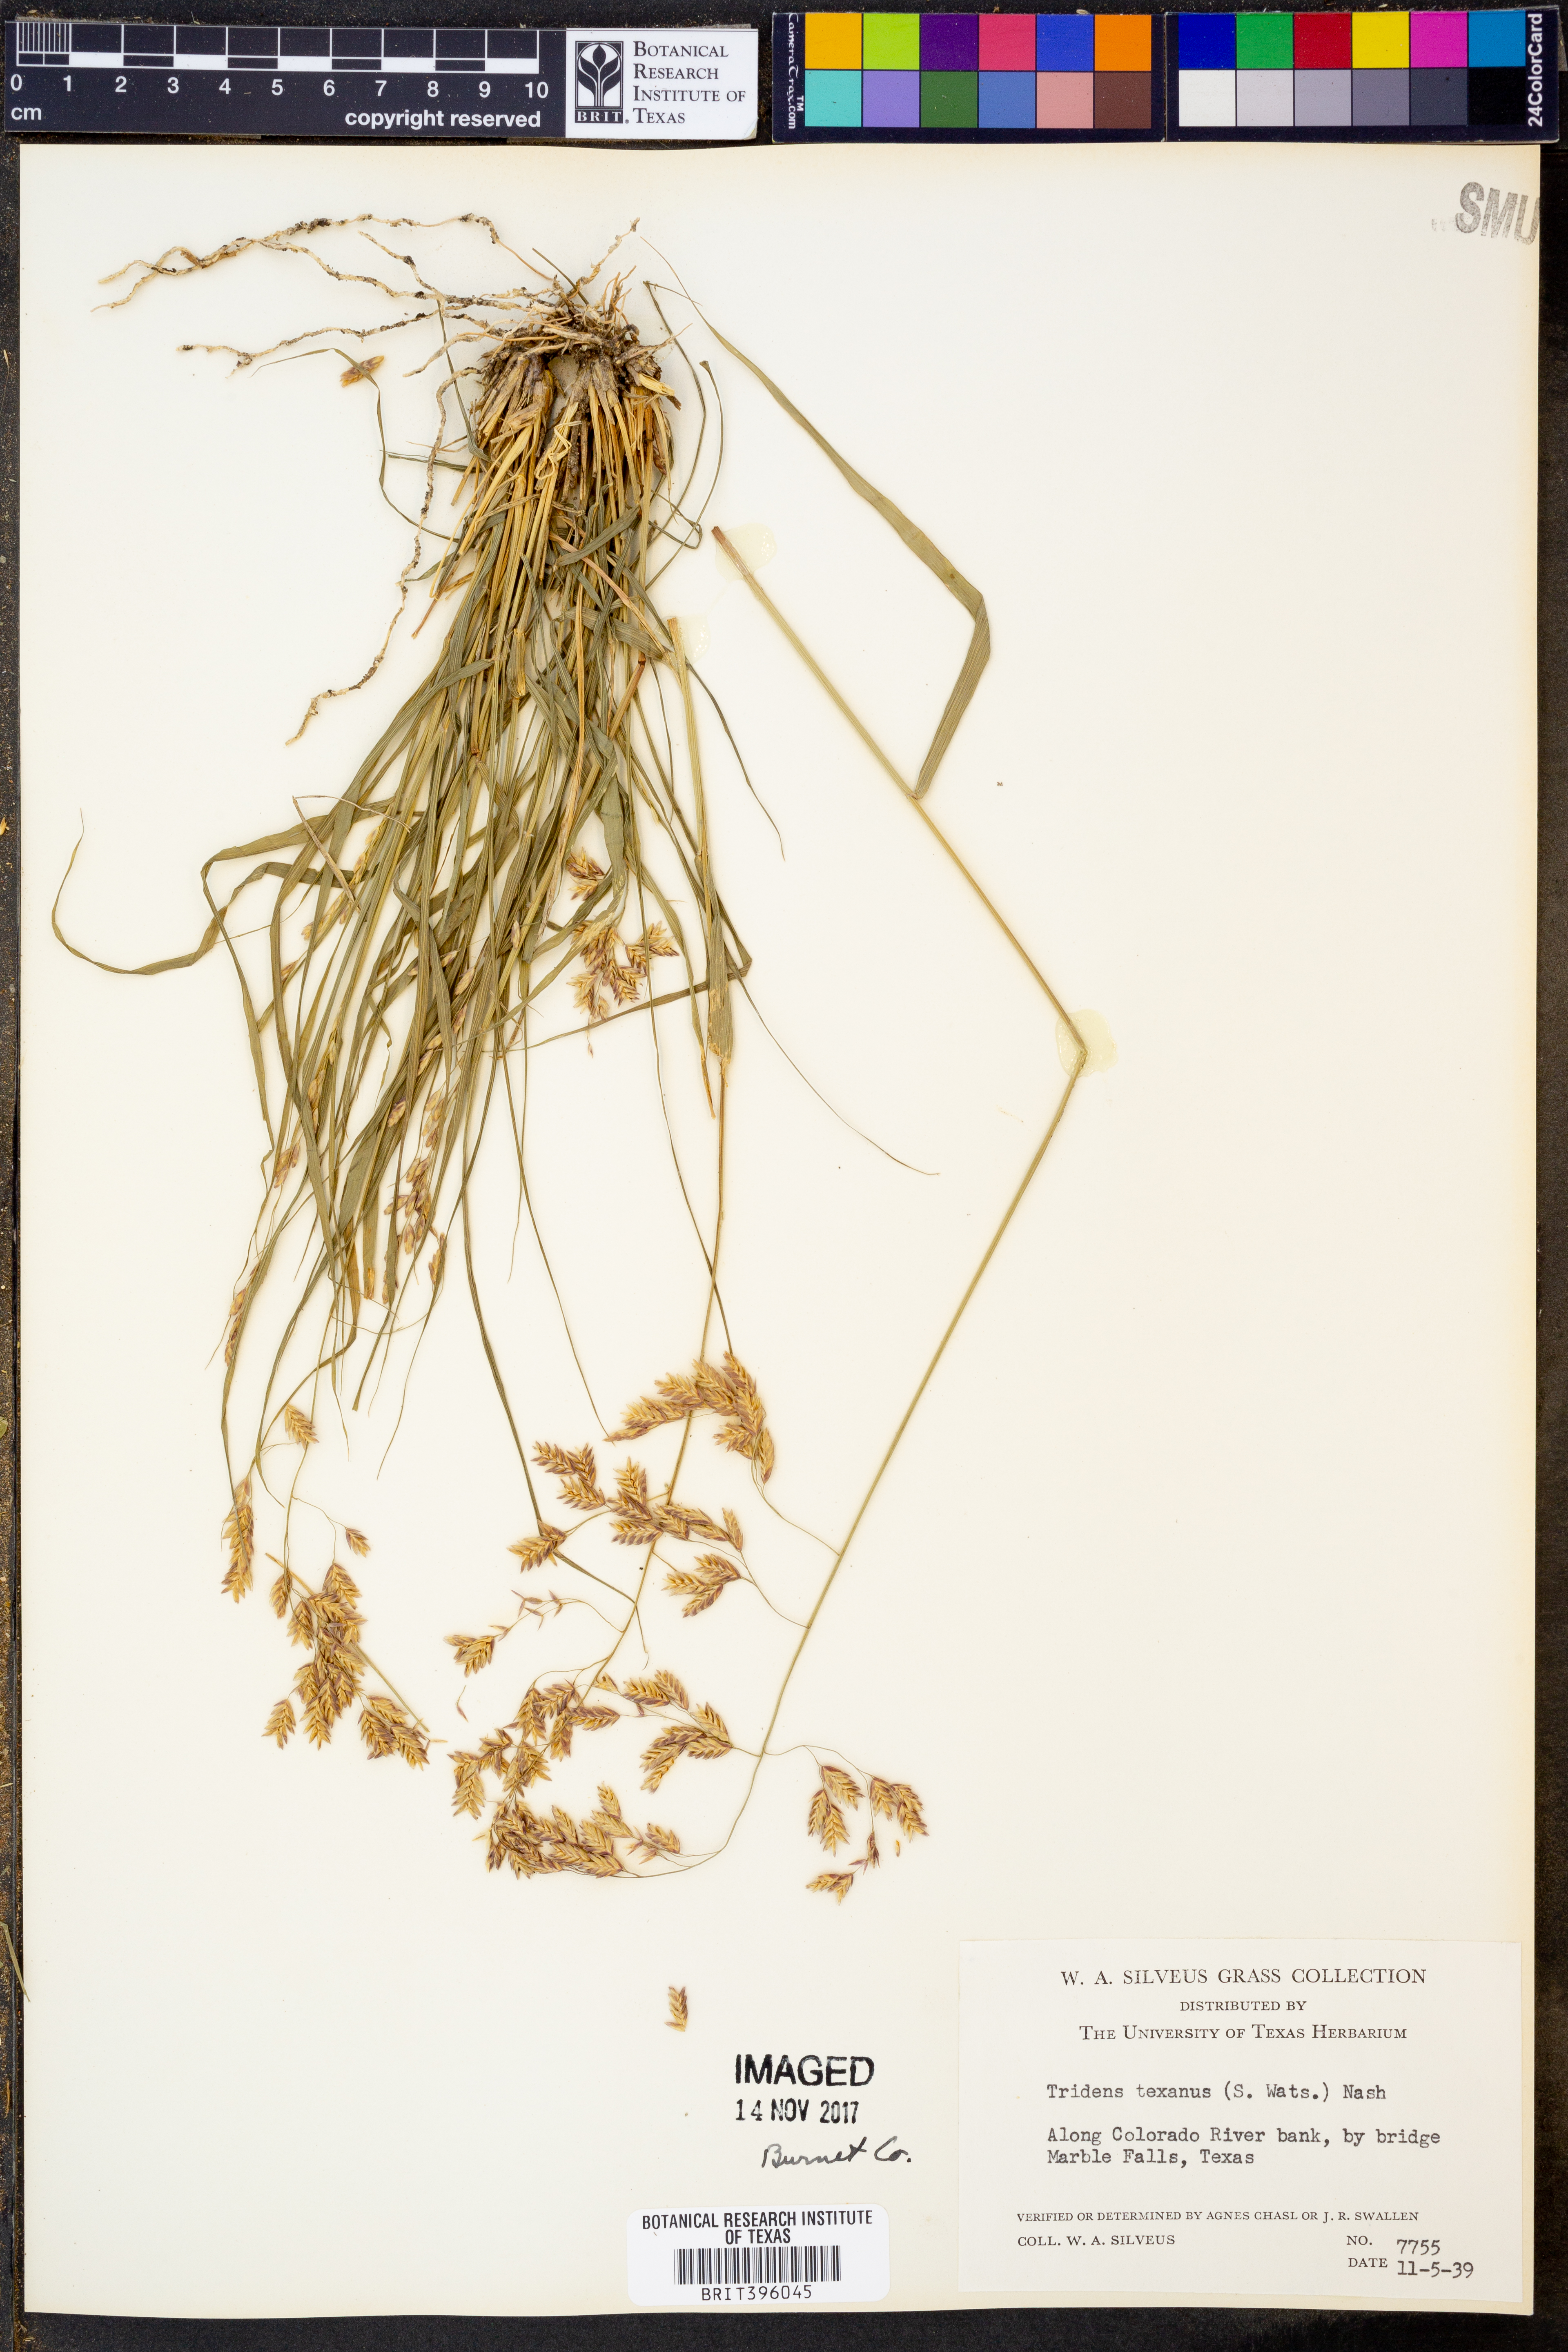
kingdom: Plantae
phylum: Tracheophyta
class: Liliopsida
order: Poales
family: Poaceae
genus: Tridens
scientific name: Tridens texanus
